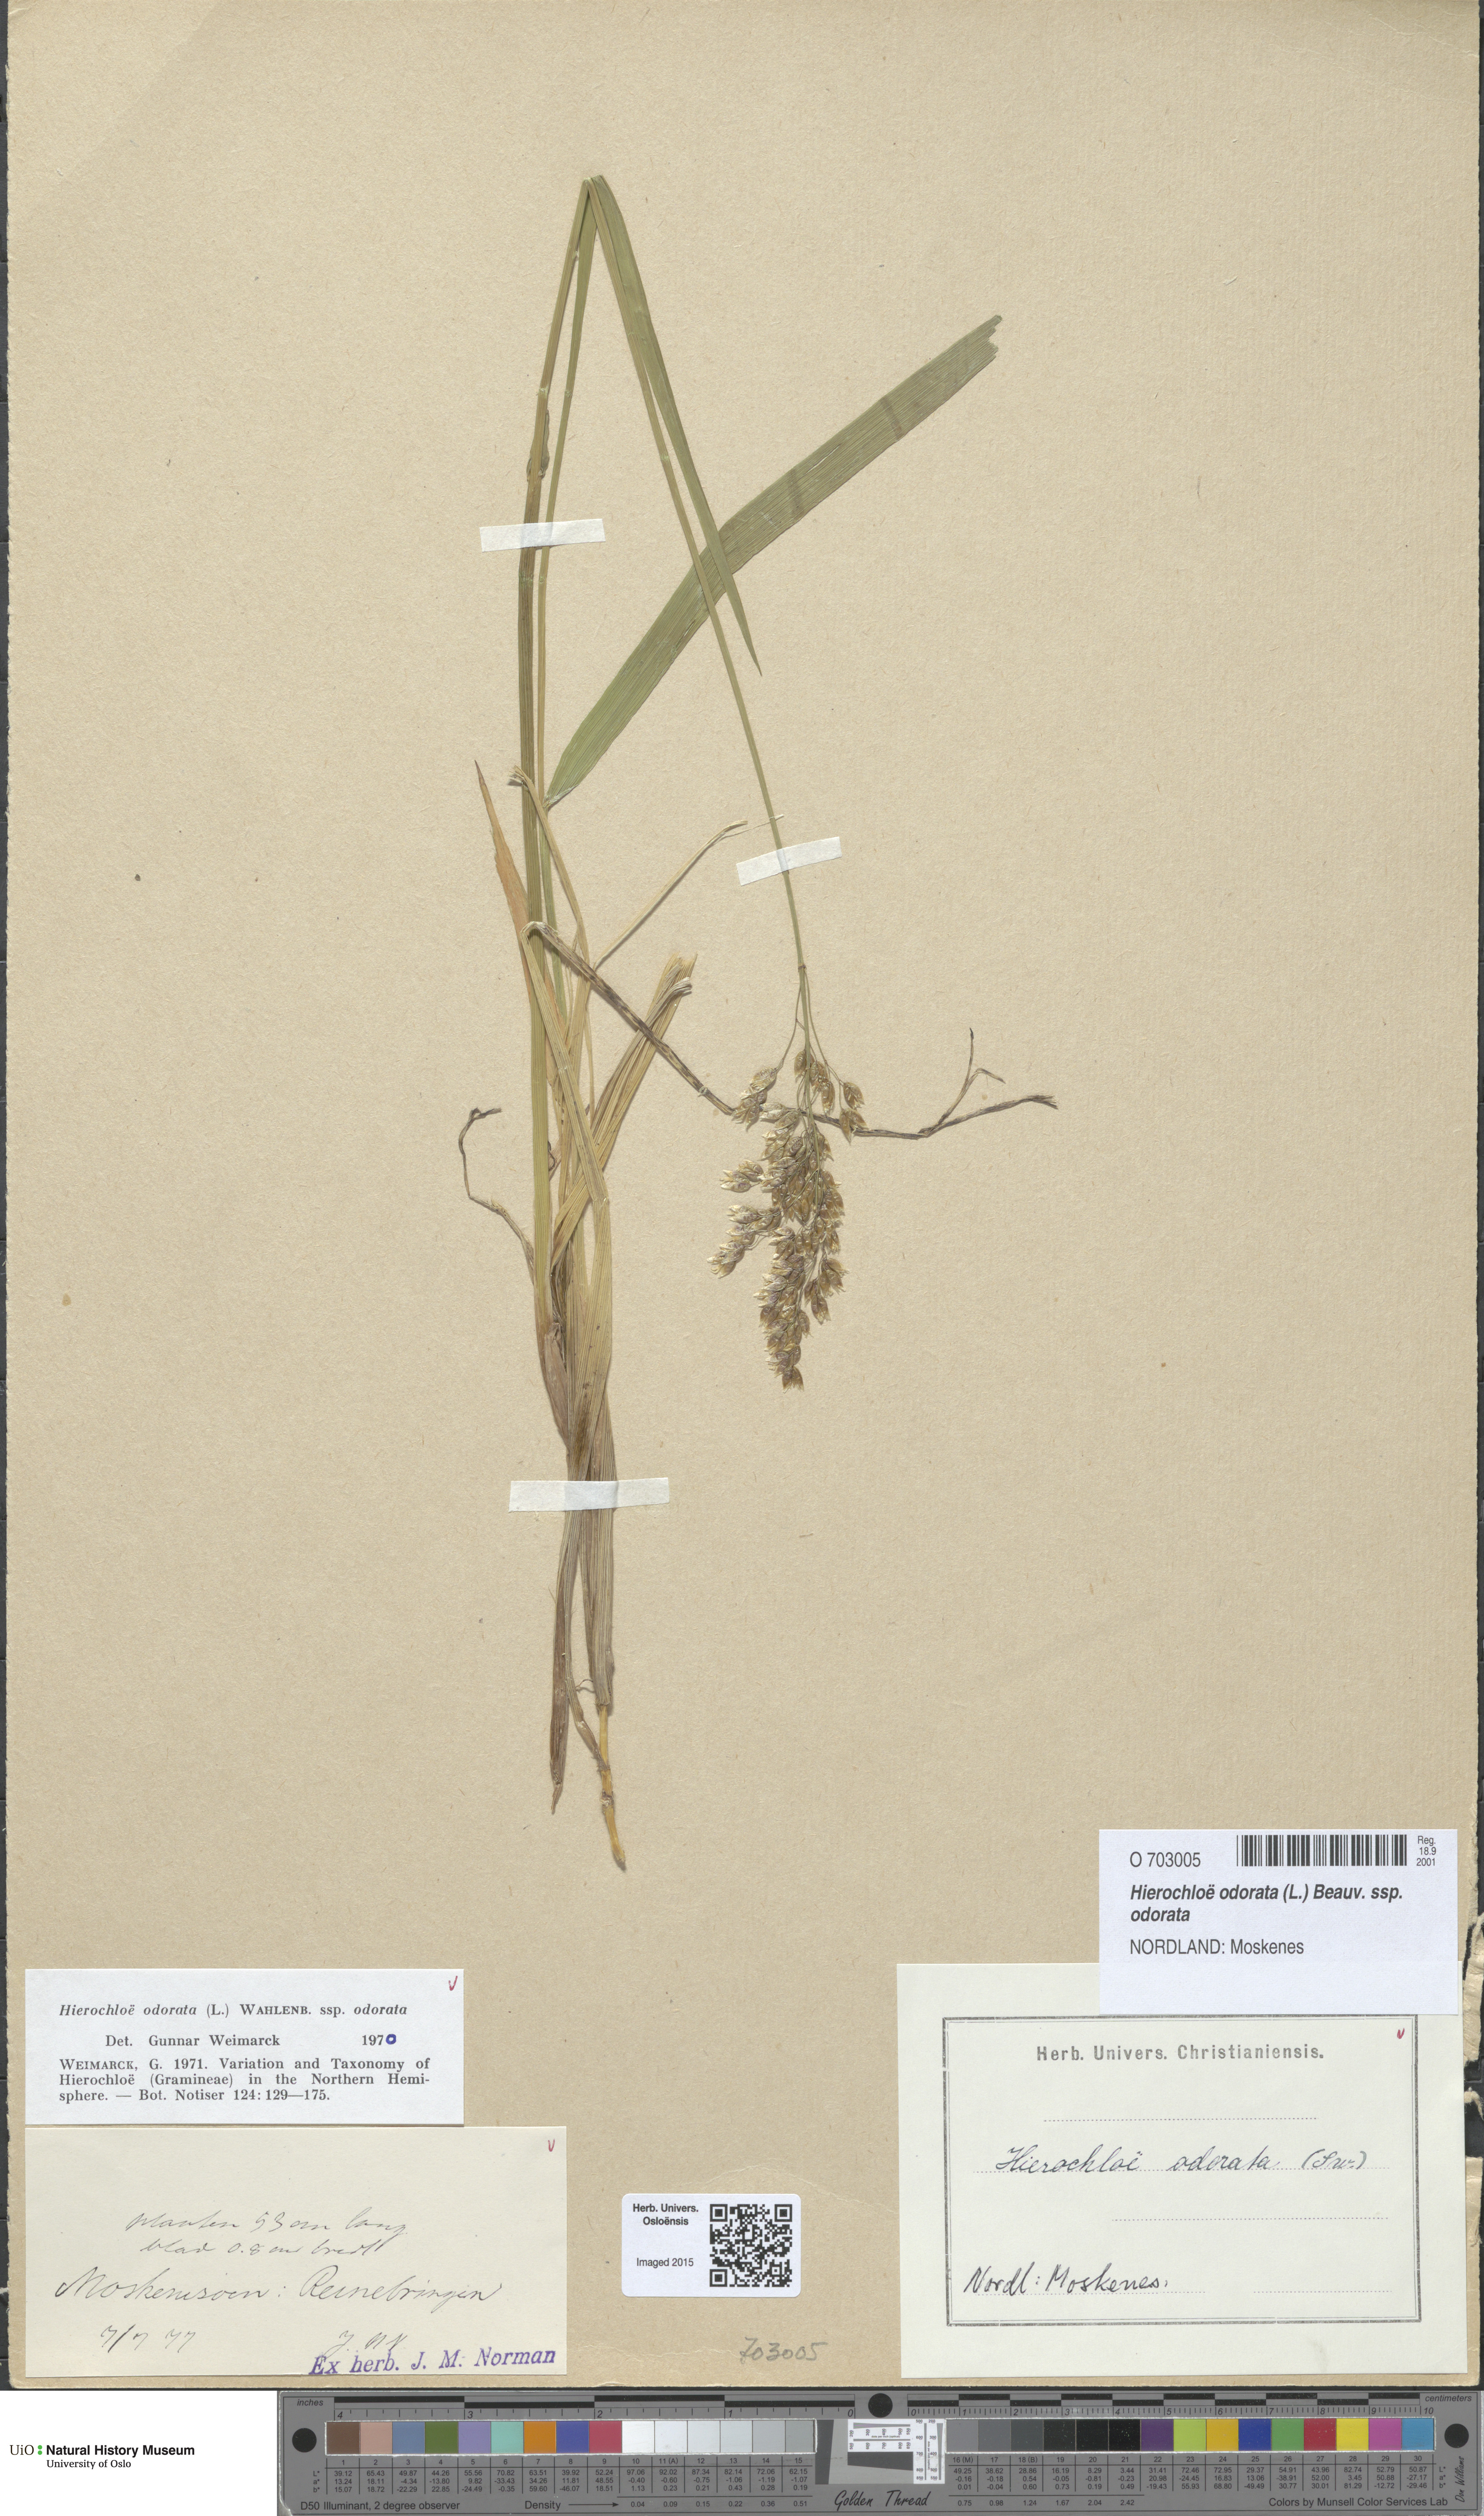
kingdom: Plantae
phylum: Tracheophyta
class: Liliopsida
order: Poales
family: Poaceae
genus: Anthoxanthum
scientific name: Anthoxanthum nitens
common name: Holy grass
